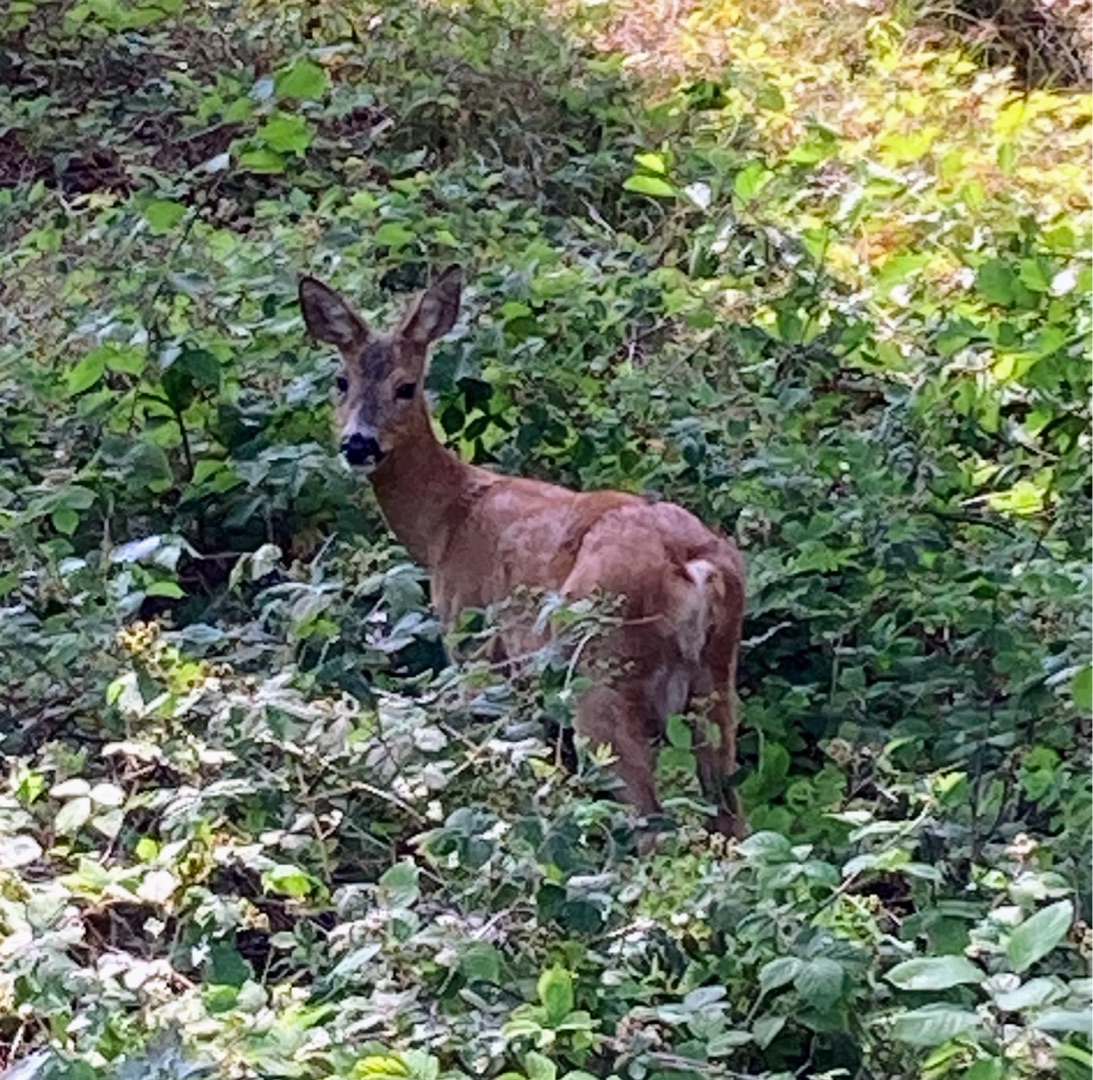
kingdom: Animalia
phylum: Chordata
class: Mammalia
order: Artiodactyla
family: Cervidae
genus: Capreolus
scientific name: Capreolus capreolus
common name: Rådyr
